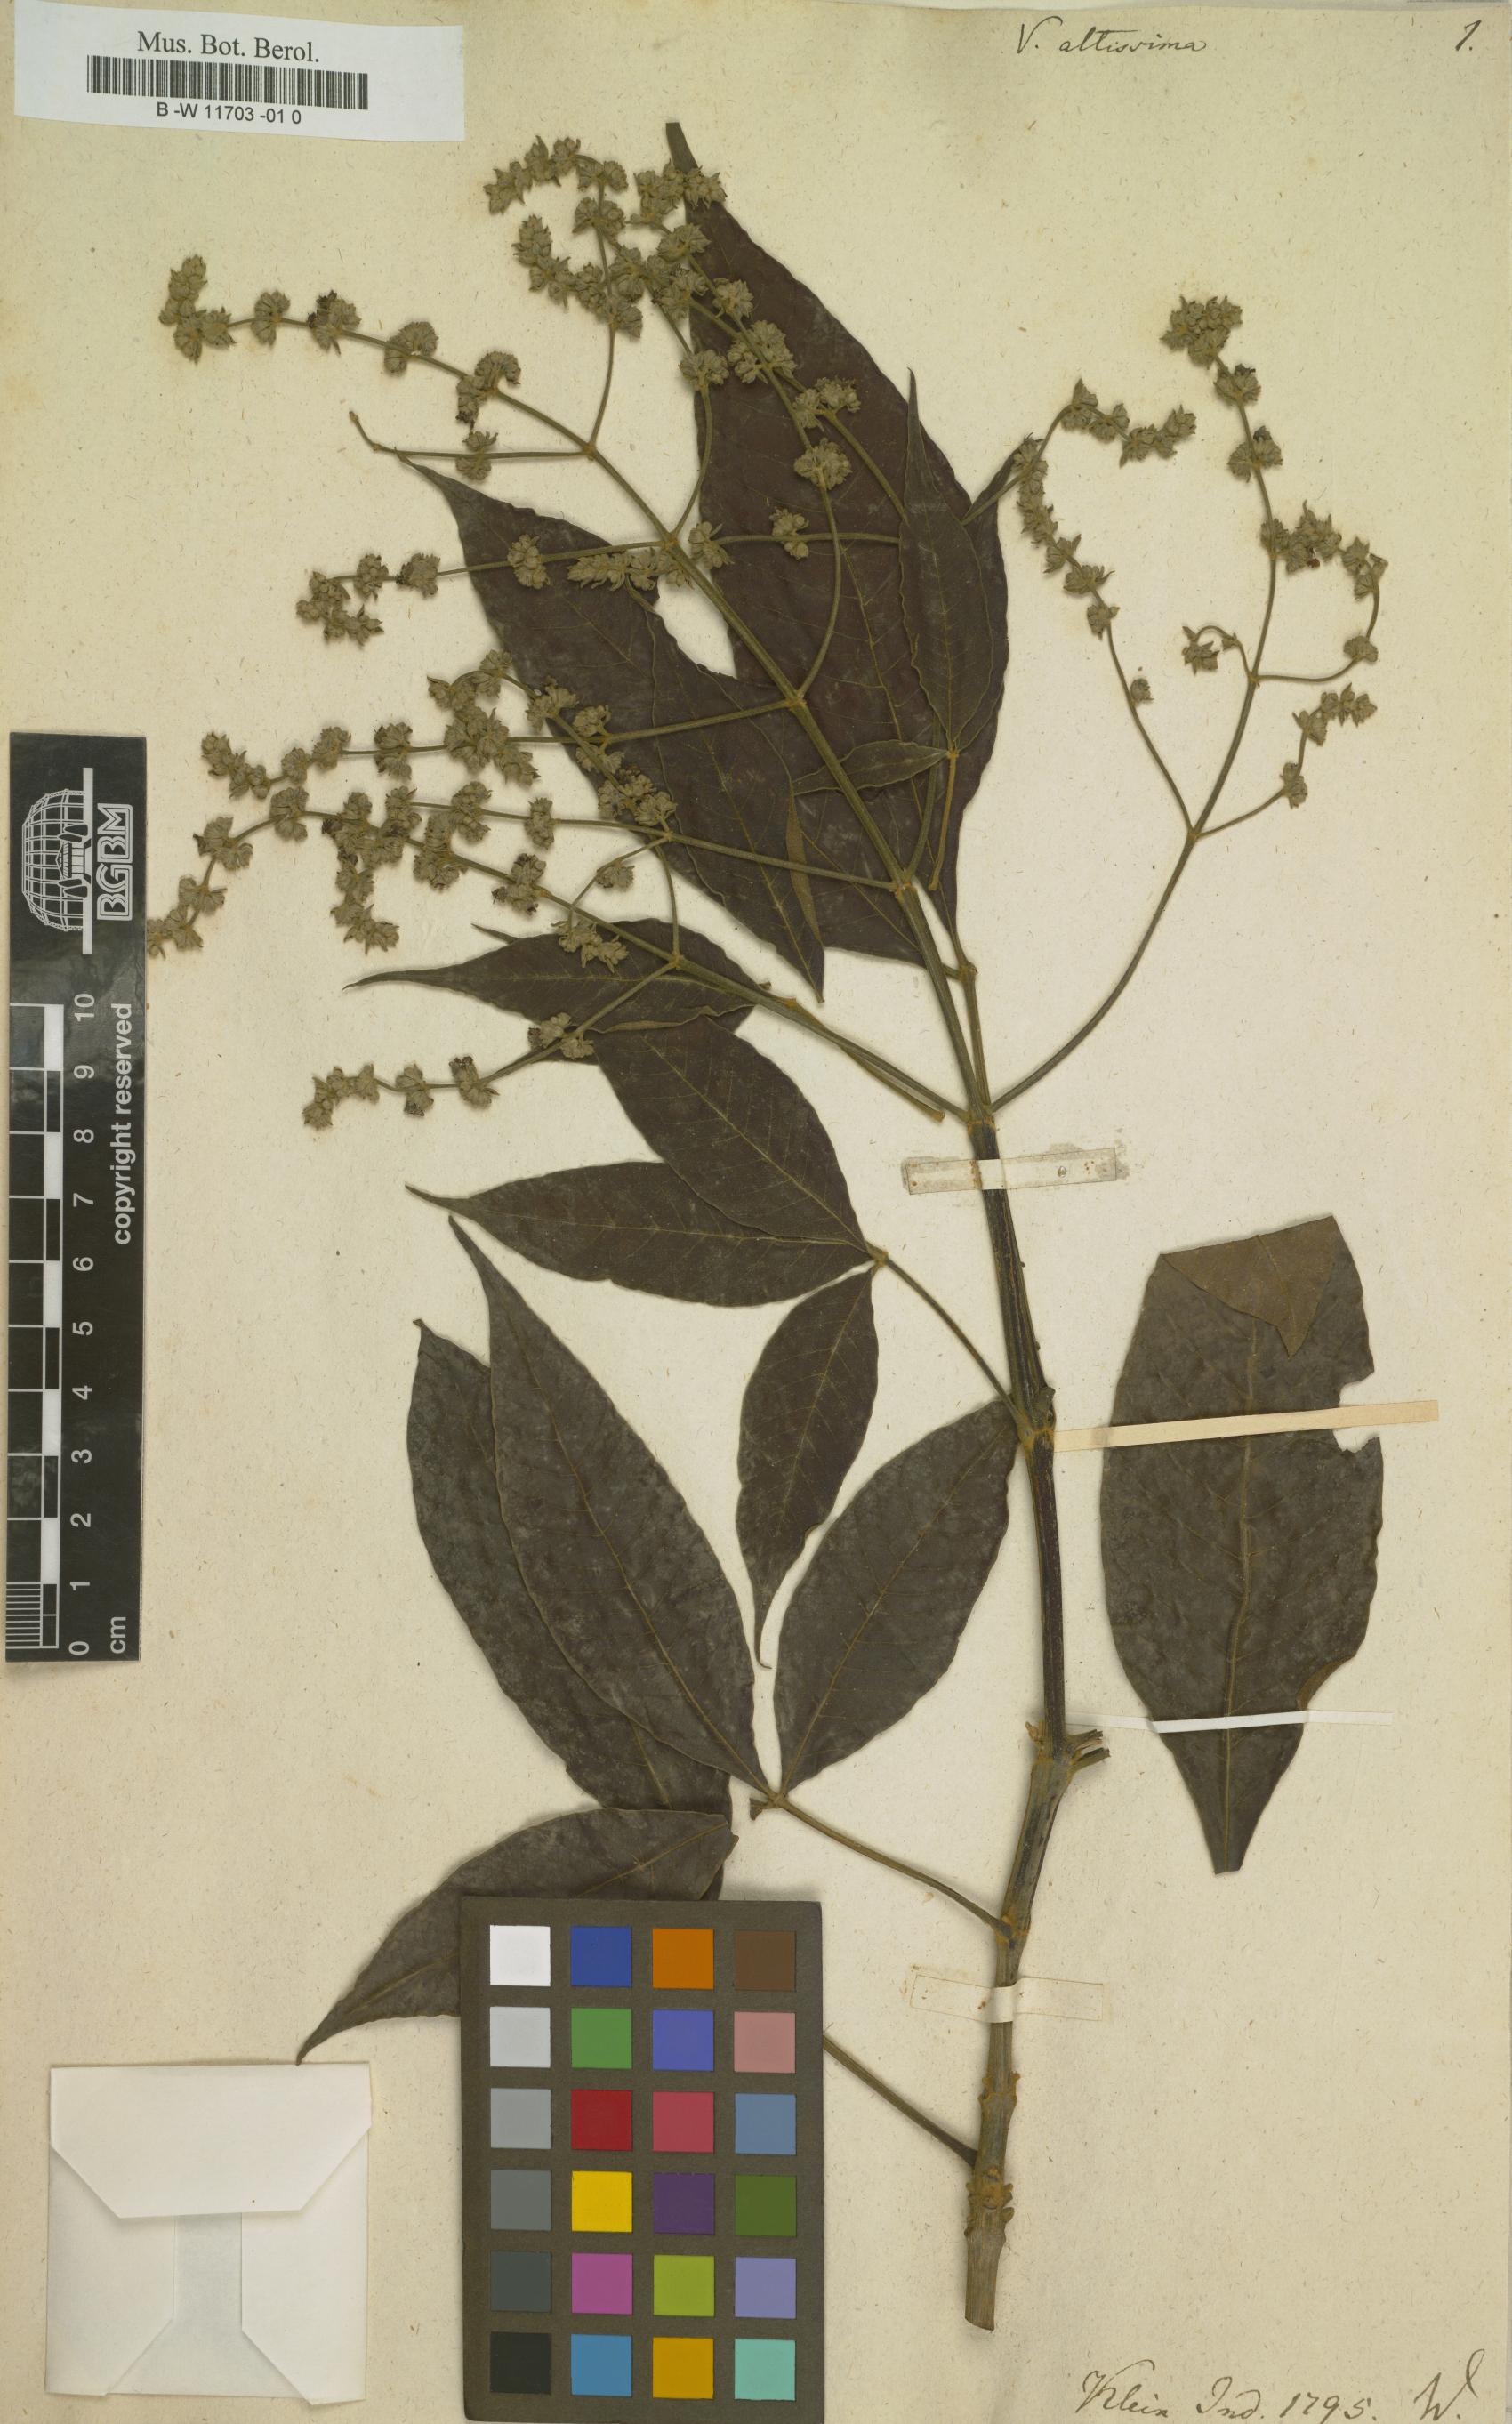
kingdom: Plantae
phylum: Tracheophyta
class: Magnoliopsida
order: Lamiales
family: Lamiaceae
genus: Vitex
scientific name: Vitex altissima
